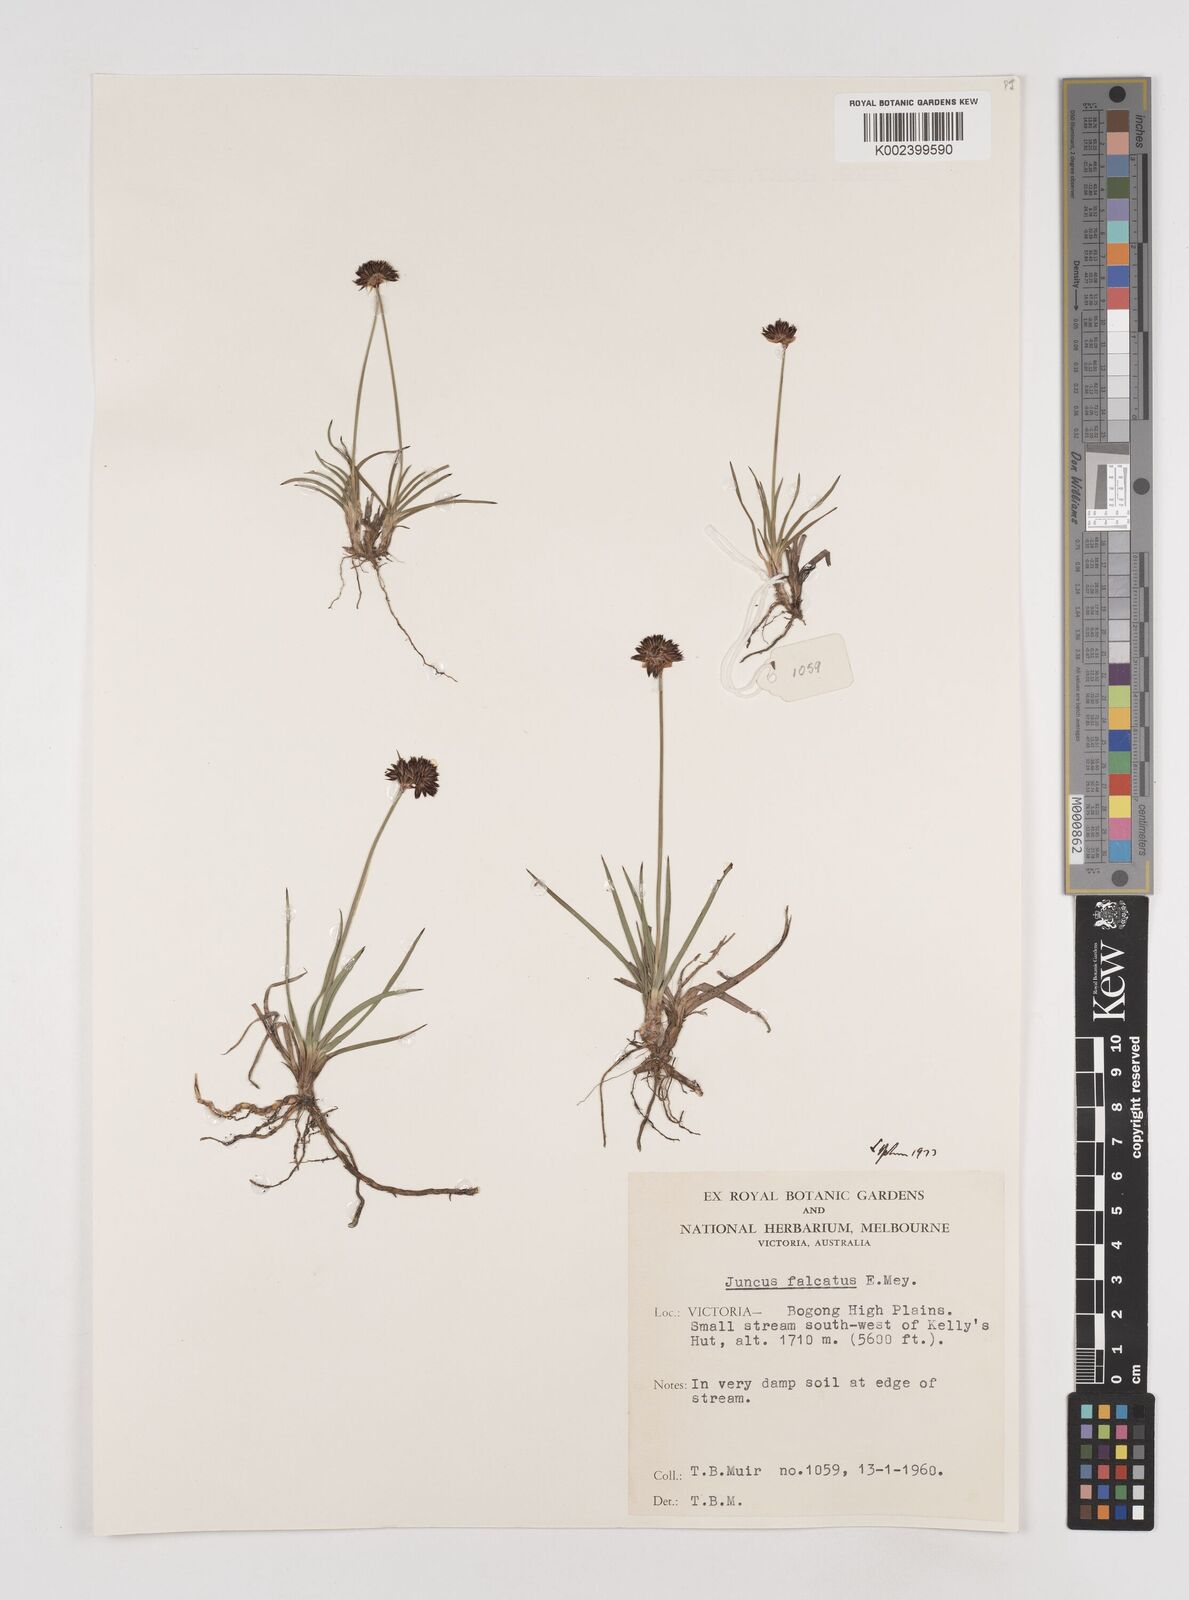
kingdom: Plantae
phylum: Tracheophyta
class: Liliopsida
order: Poales
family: Juncaceae
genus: Juncus
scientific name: Juncus falcatus
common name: Sickle-leaf rush
